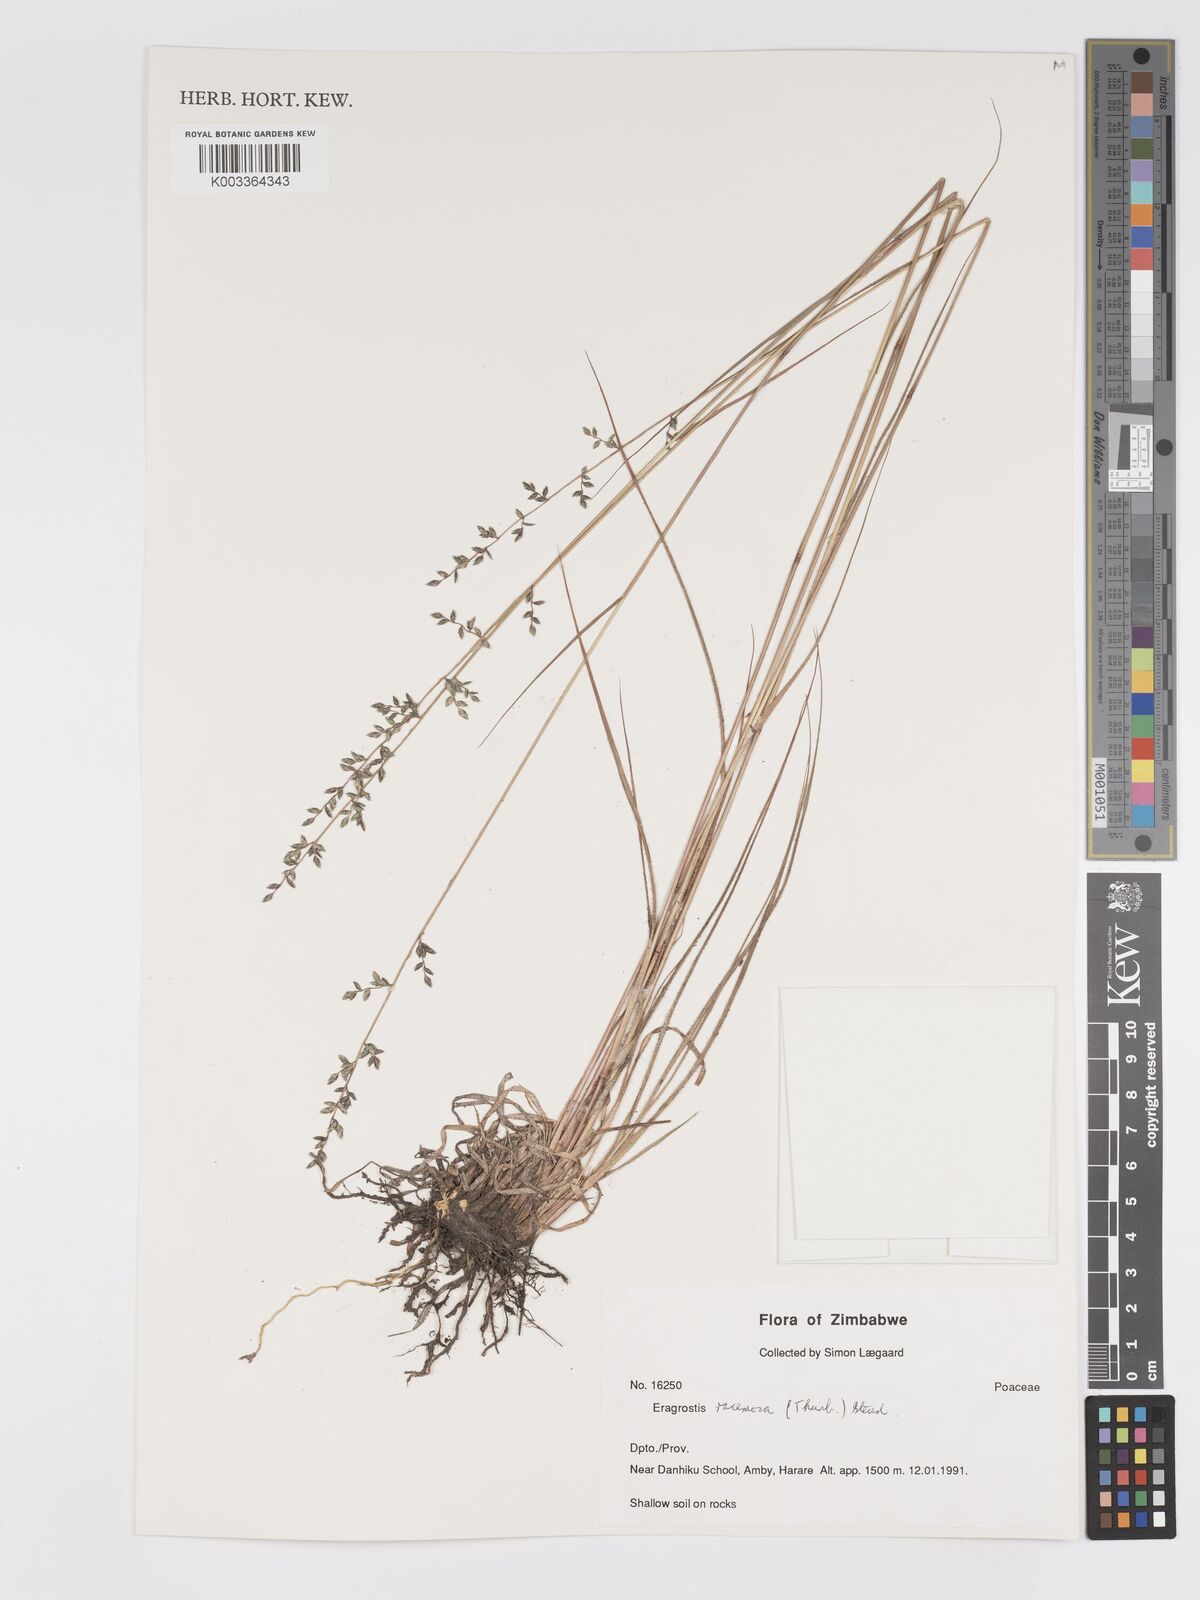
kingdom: Plantae
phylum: Tracheophyta
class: Liliopsida
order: Poales
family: Poaceae
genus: Eragrostis
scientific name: Eragrostis racemosa
